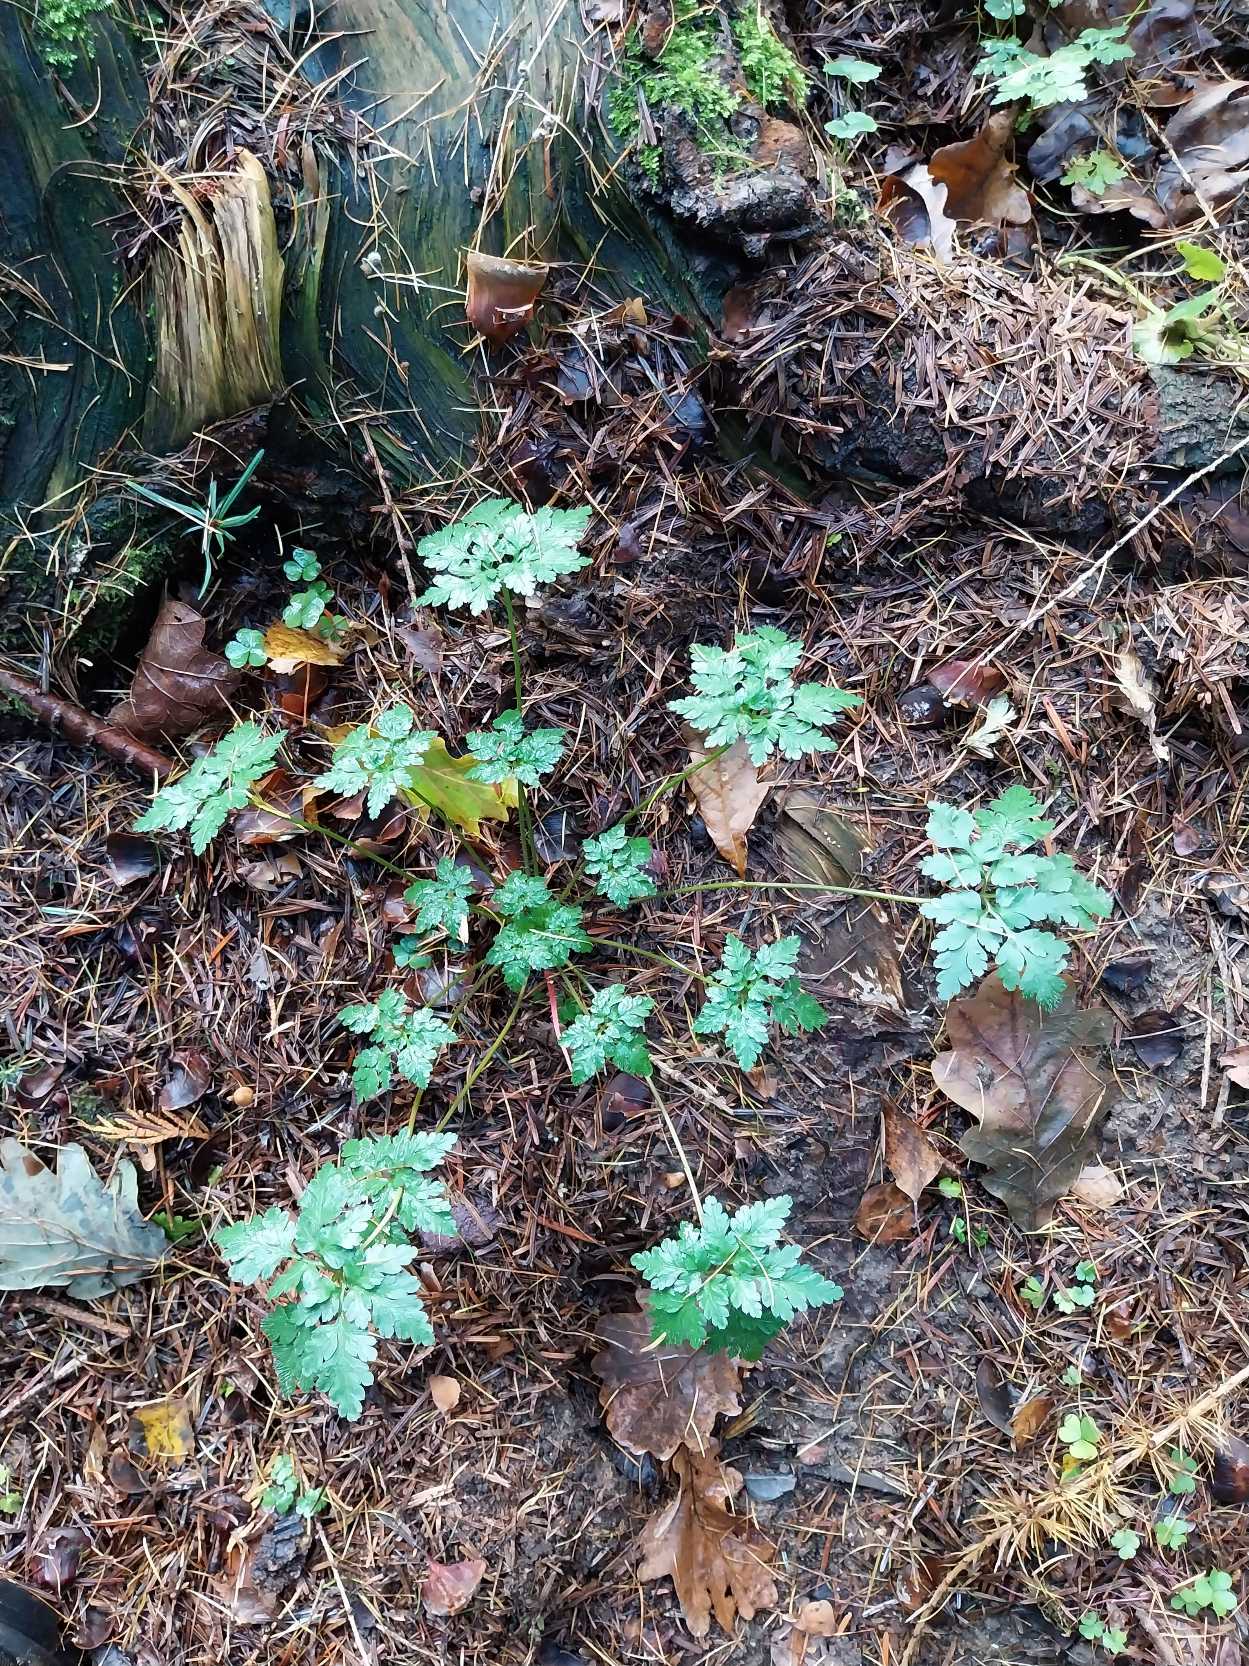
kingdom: Plantae
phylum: Tracheophyta
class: Magnoliopsida
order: Geraniales
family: Geraniaceae
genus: Geranium
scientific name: Geranium robertianum
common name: Stinkende storkenæb
